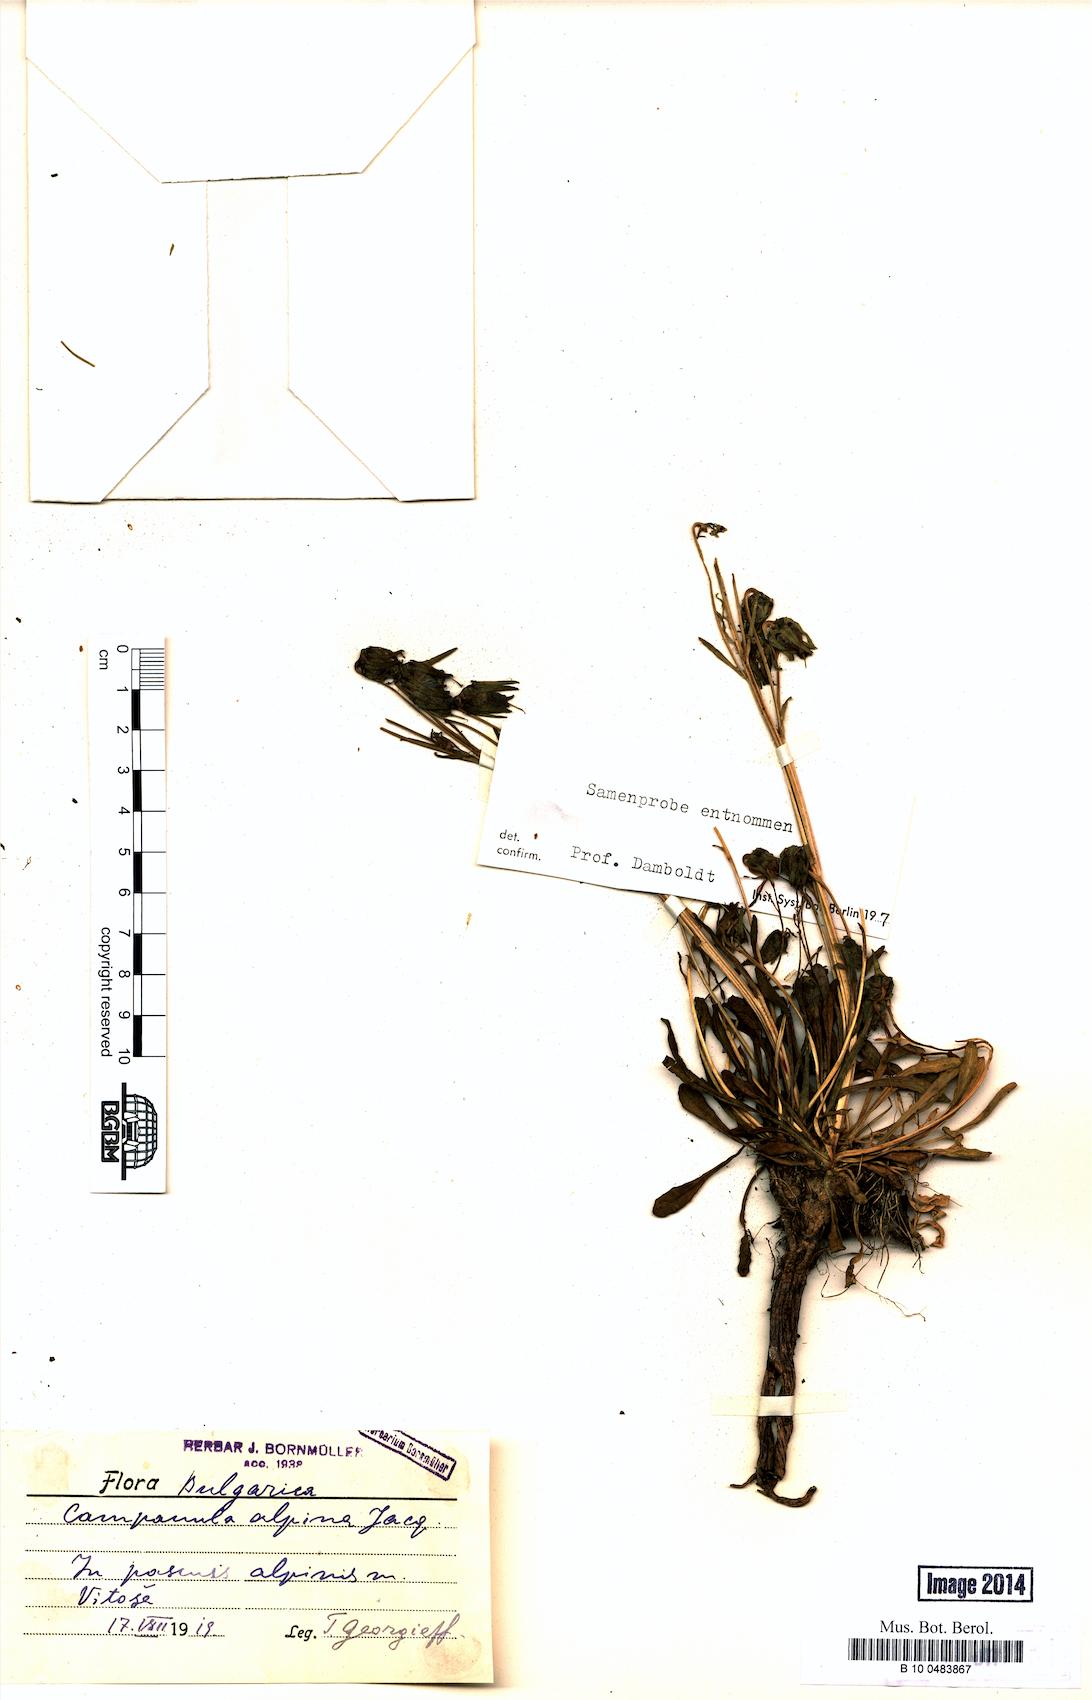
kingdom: Plantae
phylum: Tracheophyta
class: Magnoliopsida
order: Asterales
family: Campanulaceae
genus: Campanula
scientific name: Campanula alpina
